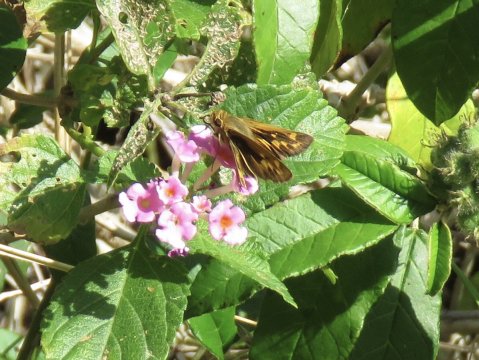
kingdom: Animalia
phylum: Arthropoda
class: Insecta
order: Lepidoptera
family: Hesperiidae
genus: Hylephila
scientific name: Hylephila phyleus
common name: Fiery Skipper
